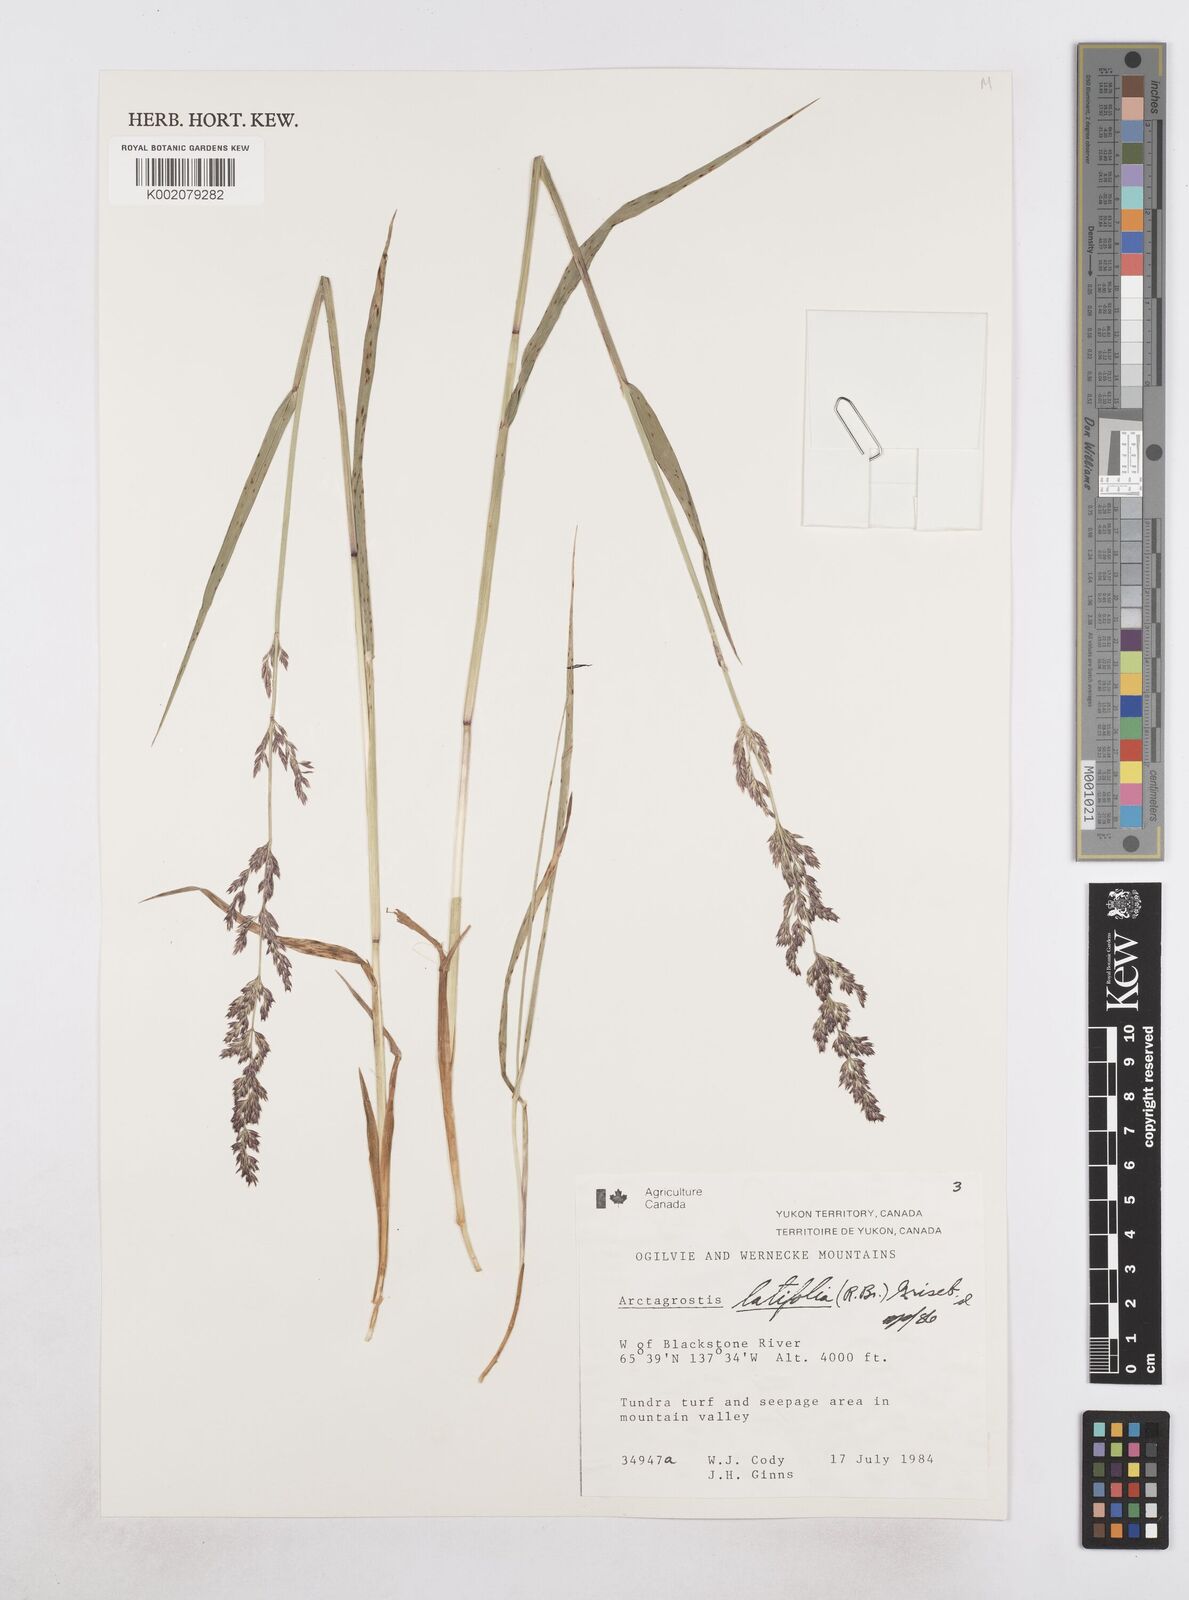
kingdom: Plantae
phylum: Tracheophyta
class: Liliopsida
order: Poales
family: Poaceae
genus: Arctagrostis
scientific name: Arctagrostis latifolia
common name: Arctic grass
